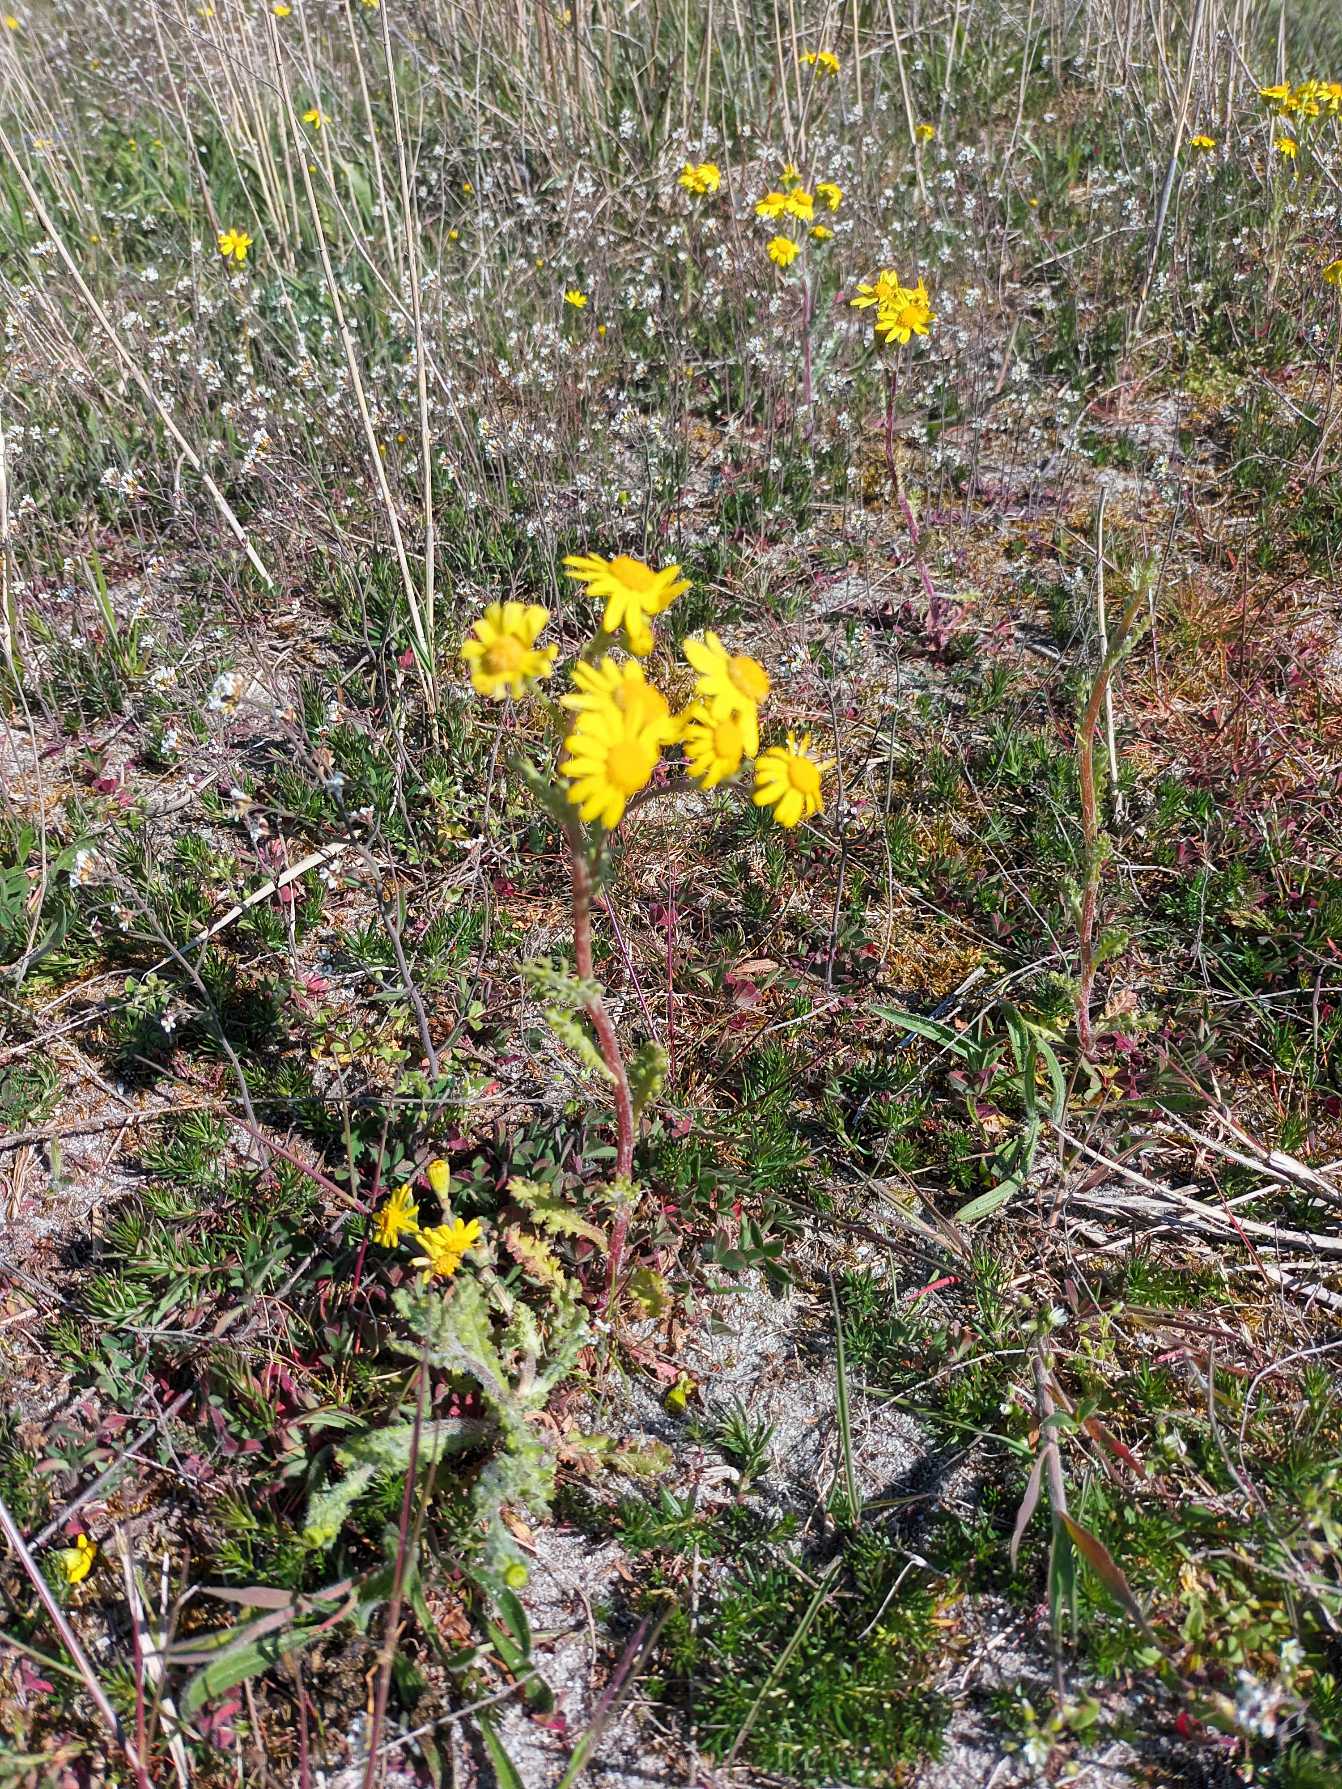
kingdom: Plantae
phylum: Tracheophyta
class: Magnoliopsida
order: Asterales
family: Asteraceae
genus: Senecio
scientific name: Senecio leucanthemifolius
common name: Vår-brandbæger
